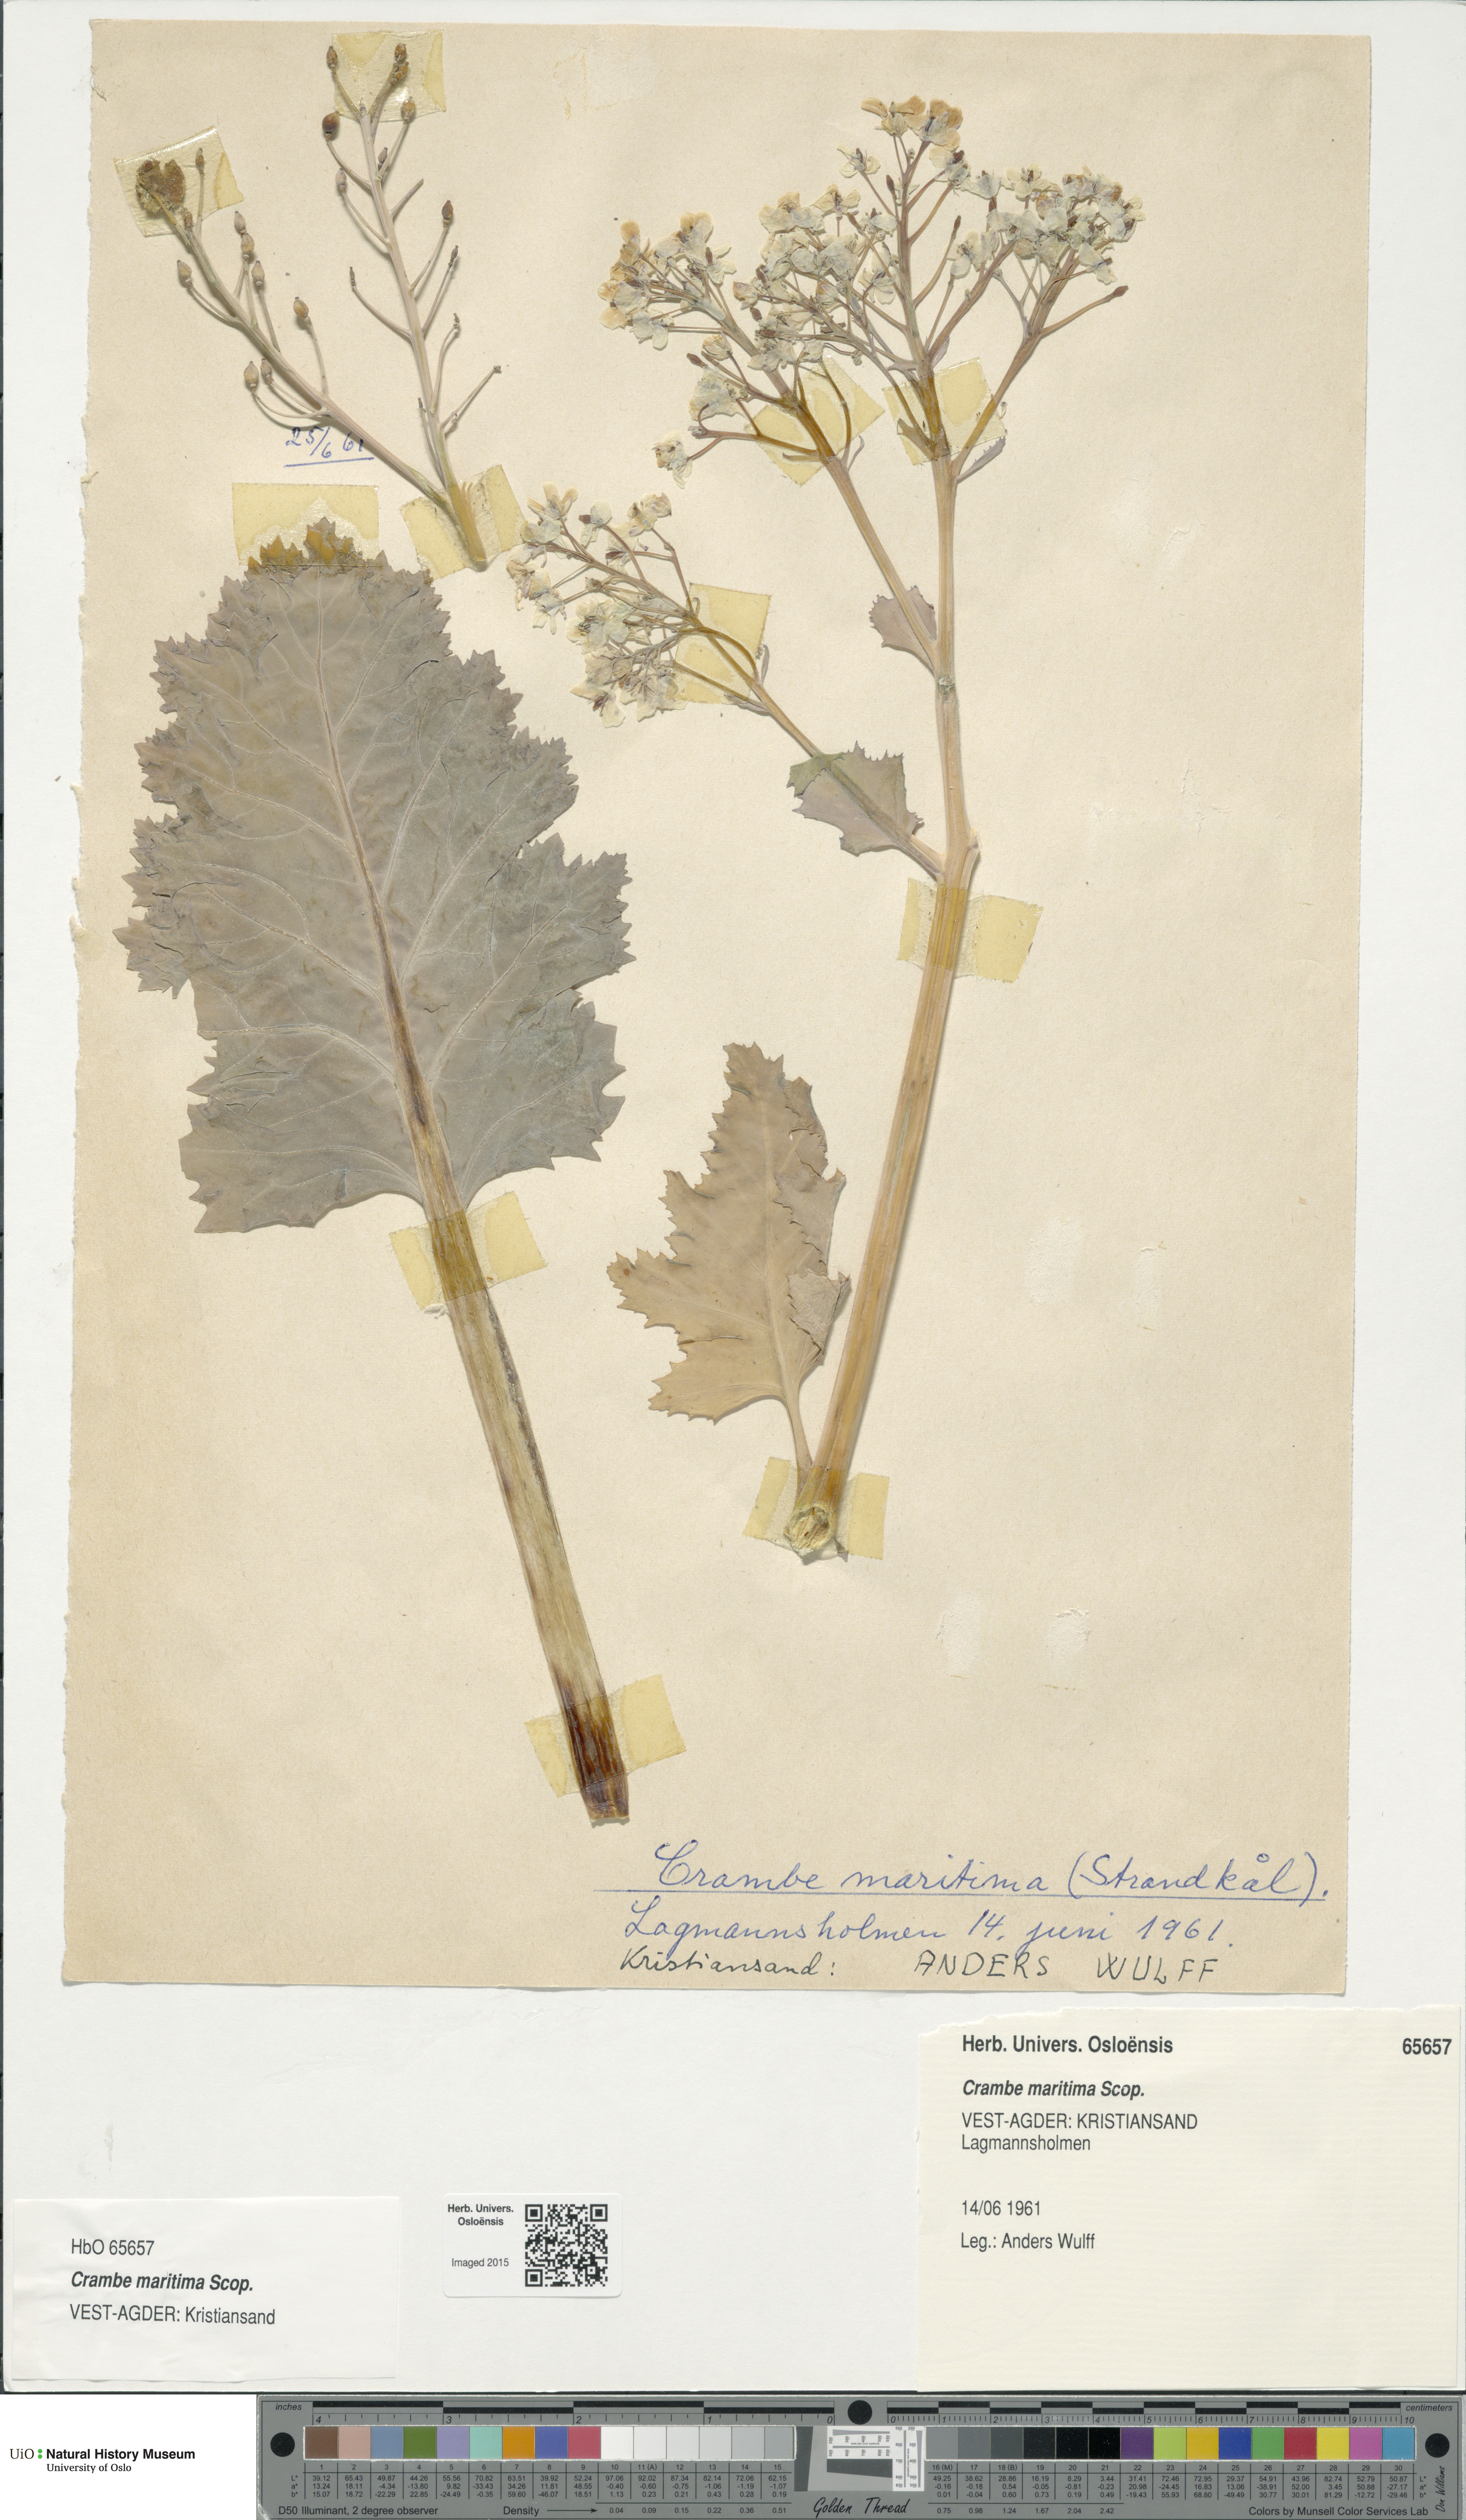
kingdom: Plantae
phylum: Tracheophyta
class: Magnoliopsida
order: Brassicales
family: Brassicaceae
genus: Crambe
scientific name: Crambe maritima
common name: Sea-kale
